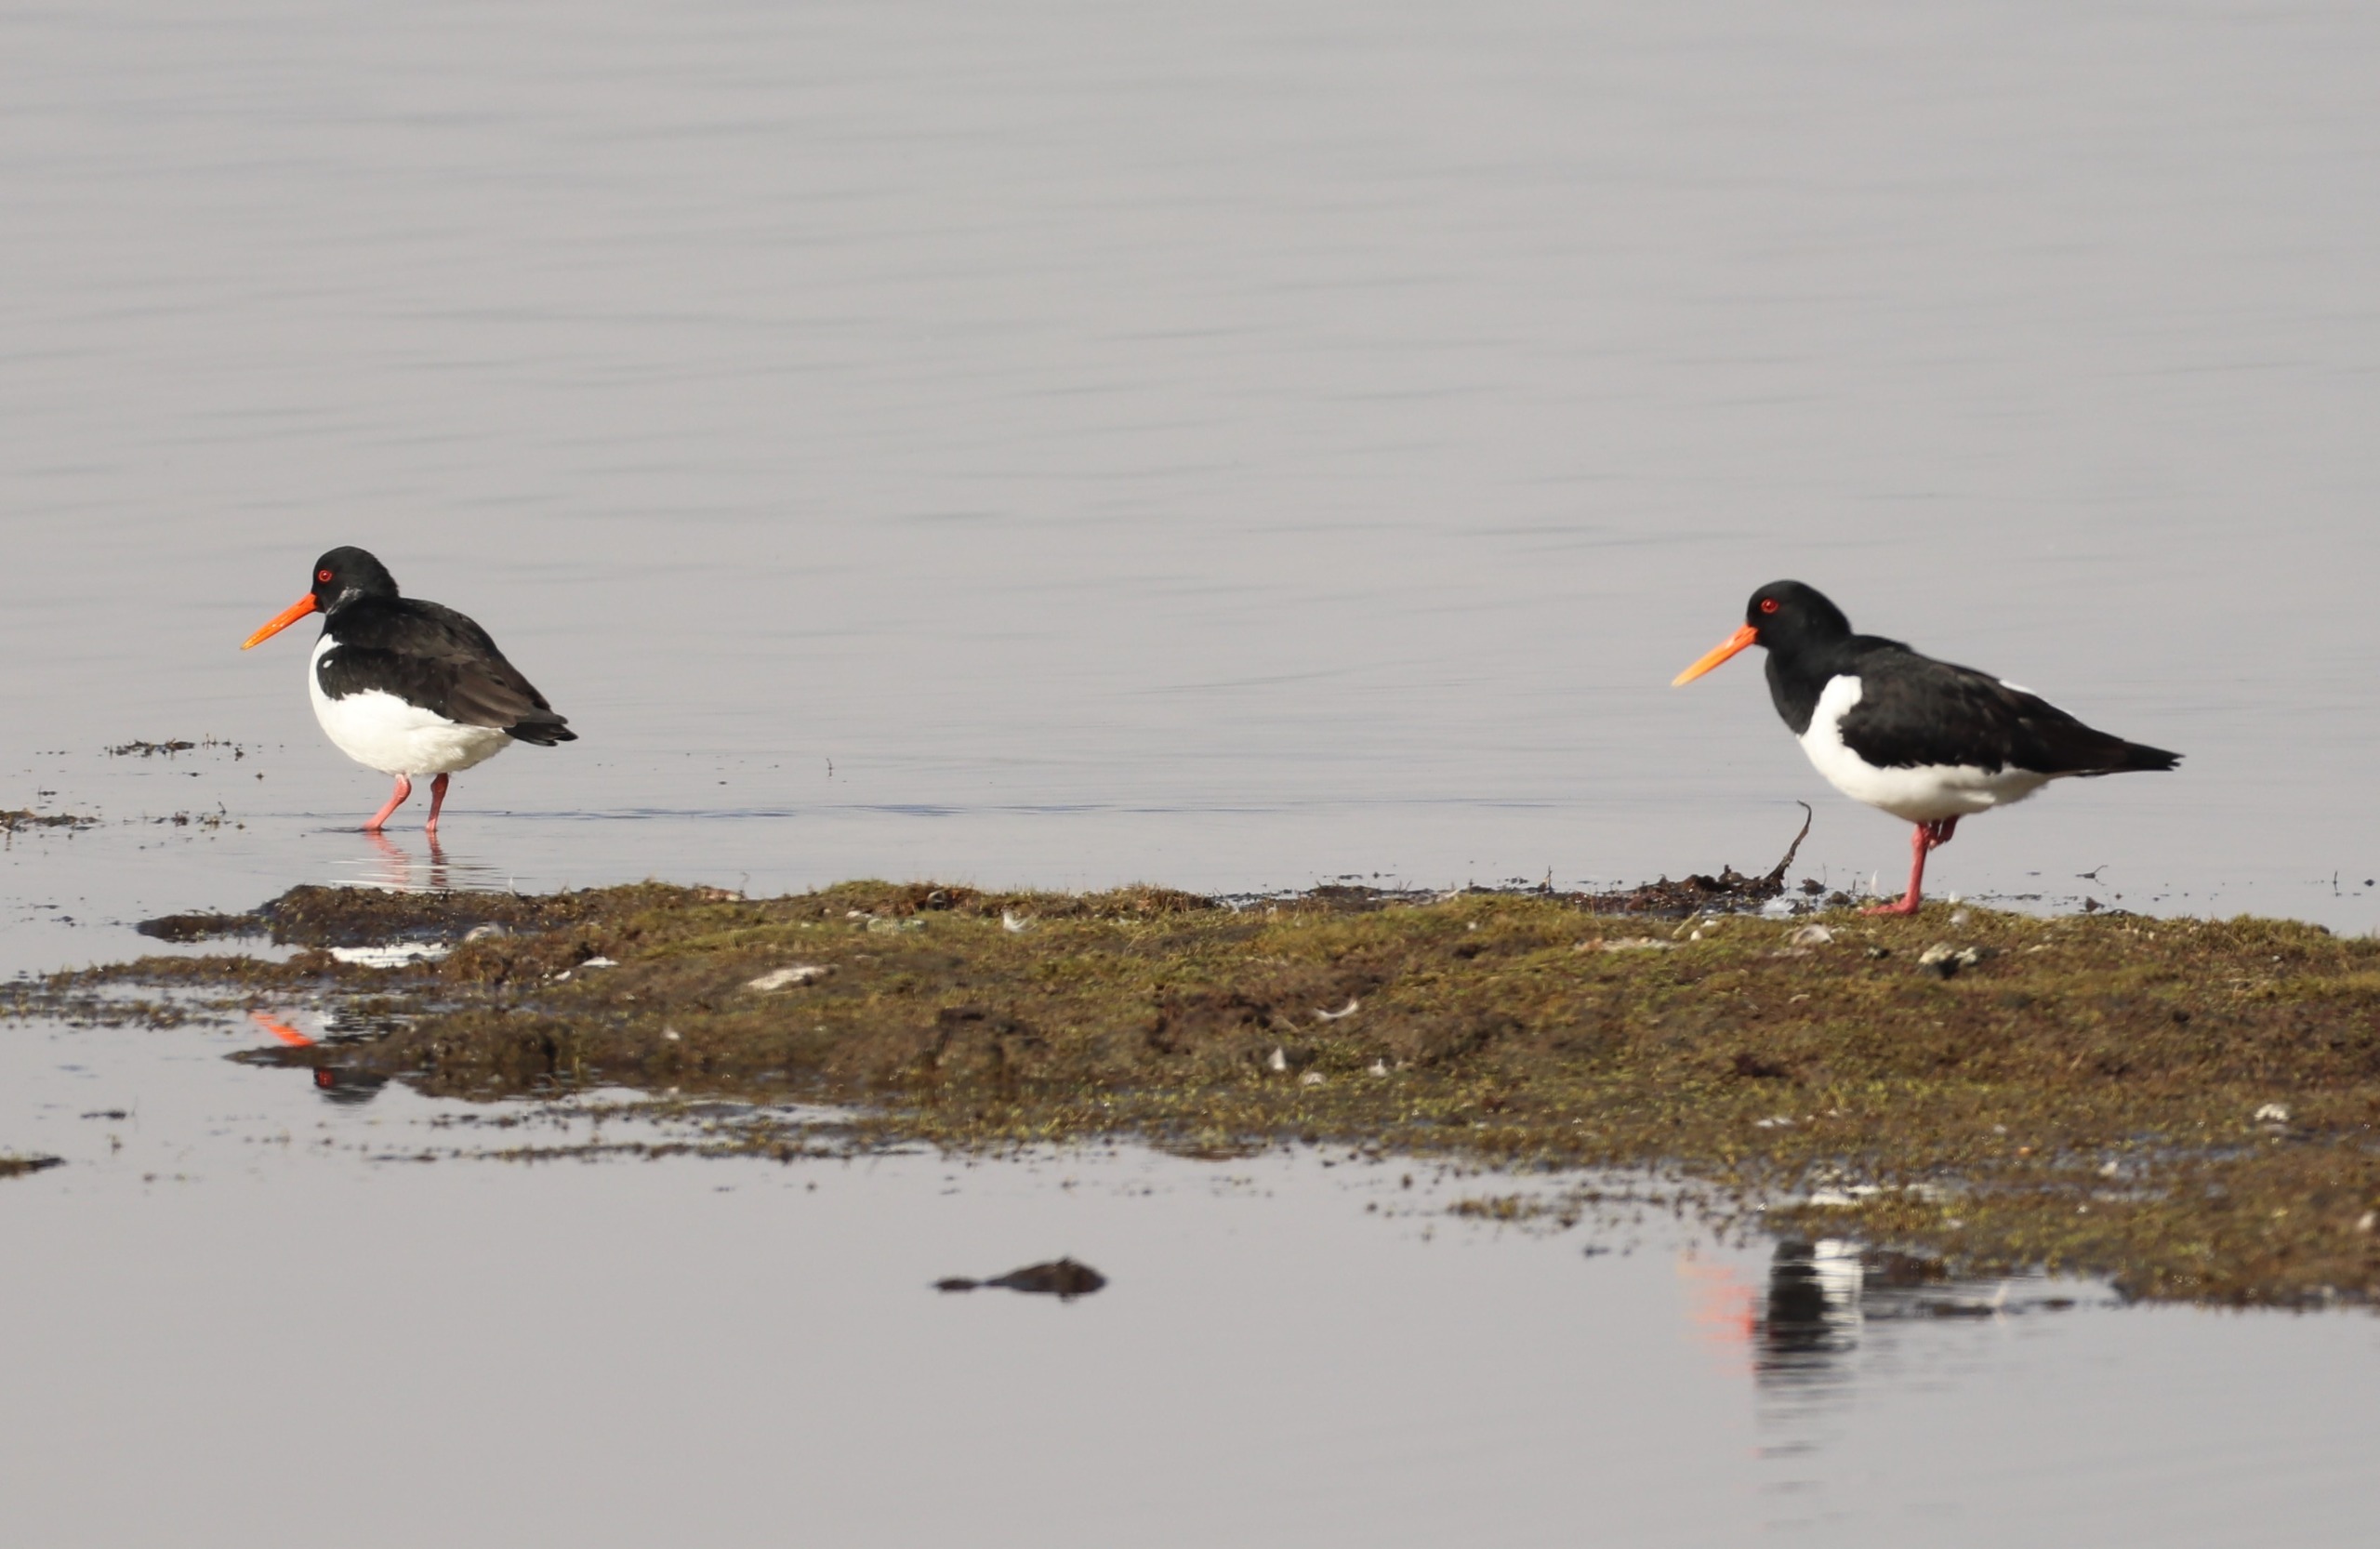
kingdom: Animalia
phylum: Chordata
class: Aves
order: Charadriiformes
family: Haematopodidae
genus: Haematopus
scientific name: Haematopus ostralegus
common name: Strandskade
